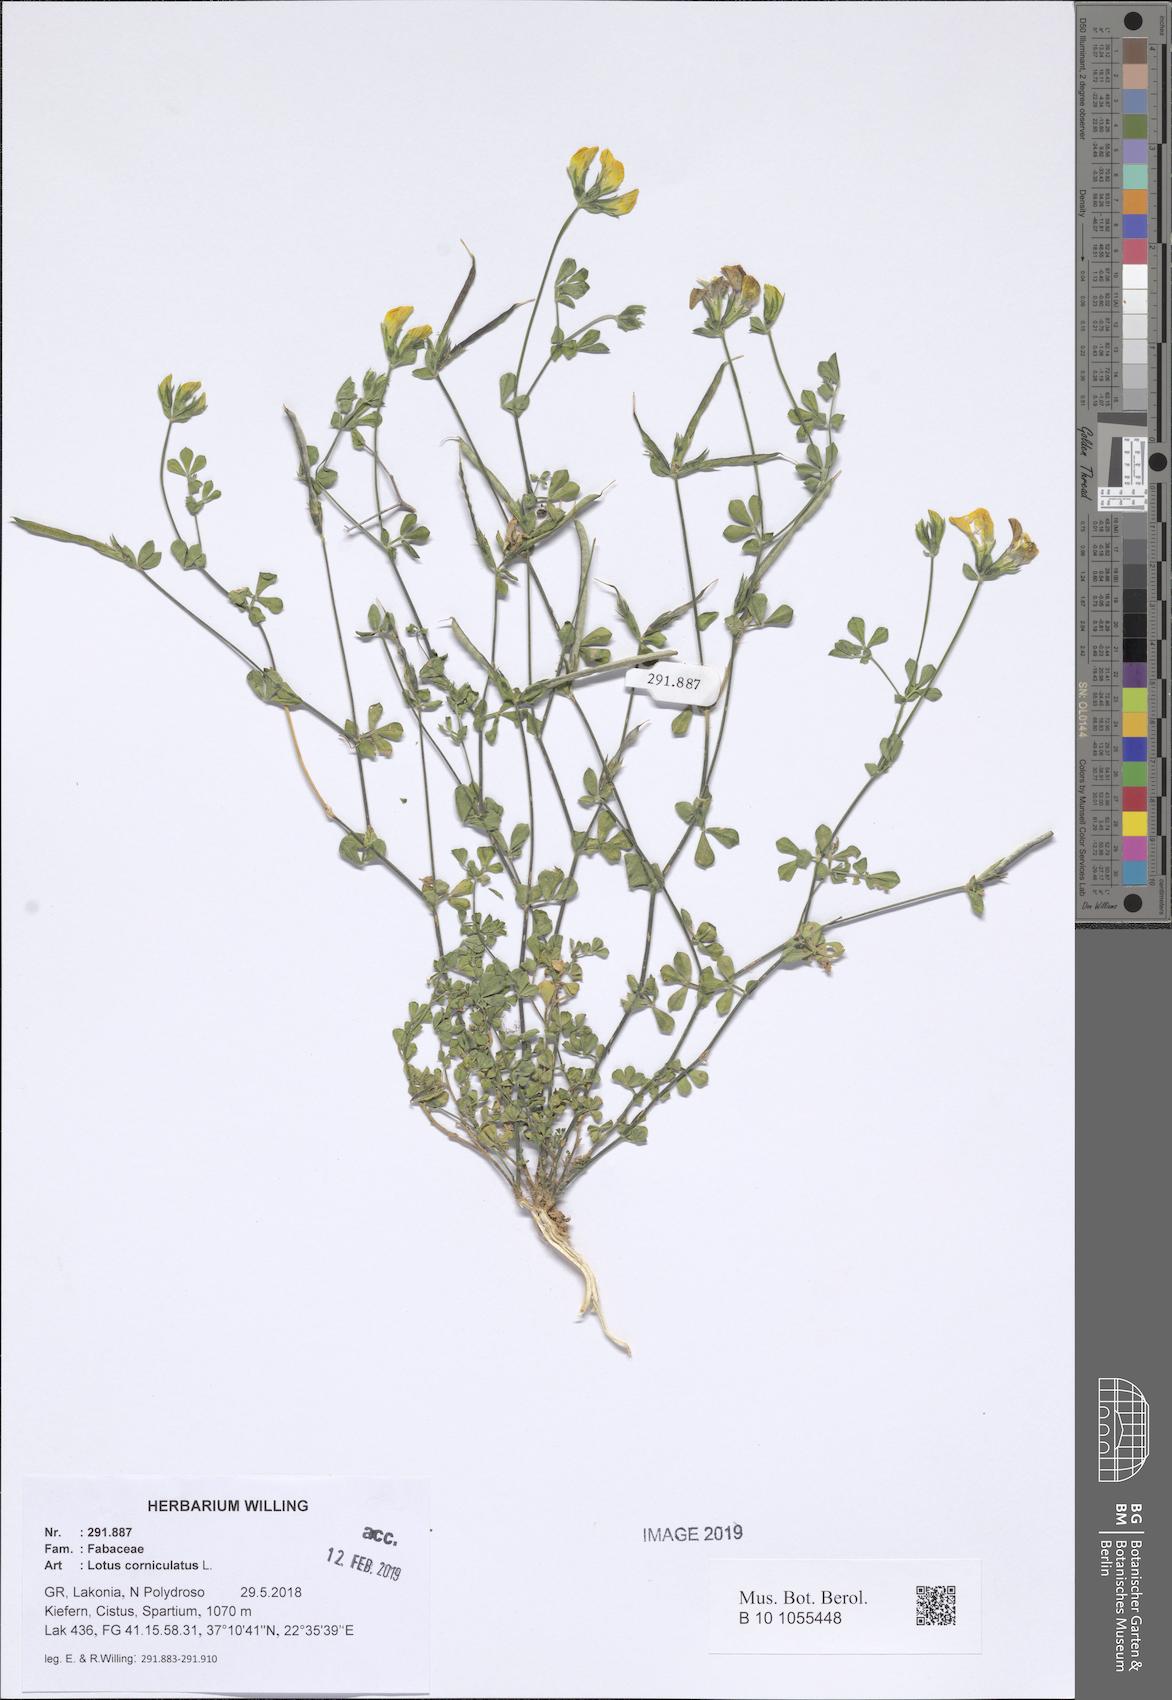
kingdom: Plantae
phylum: Tracheophyta
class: Magnoliopsida
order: Fabales
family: Fabaceae
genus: Lotus
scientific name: Lotus corniculatus
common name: Common bird's-foot-trefoil
